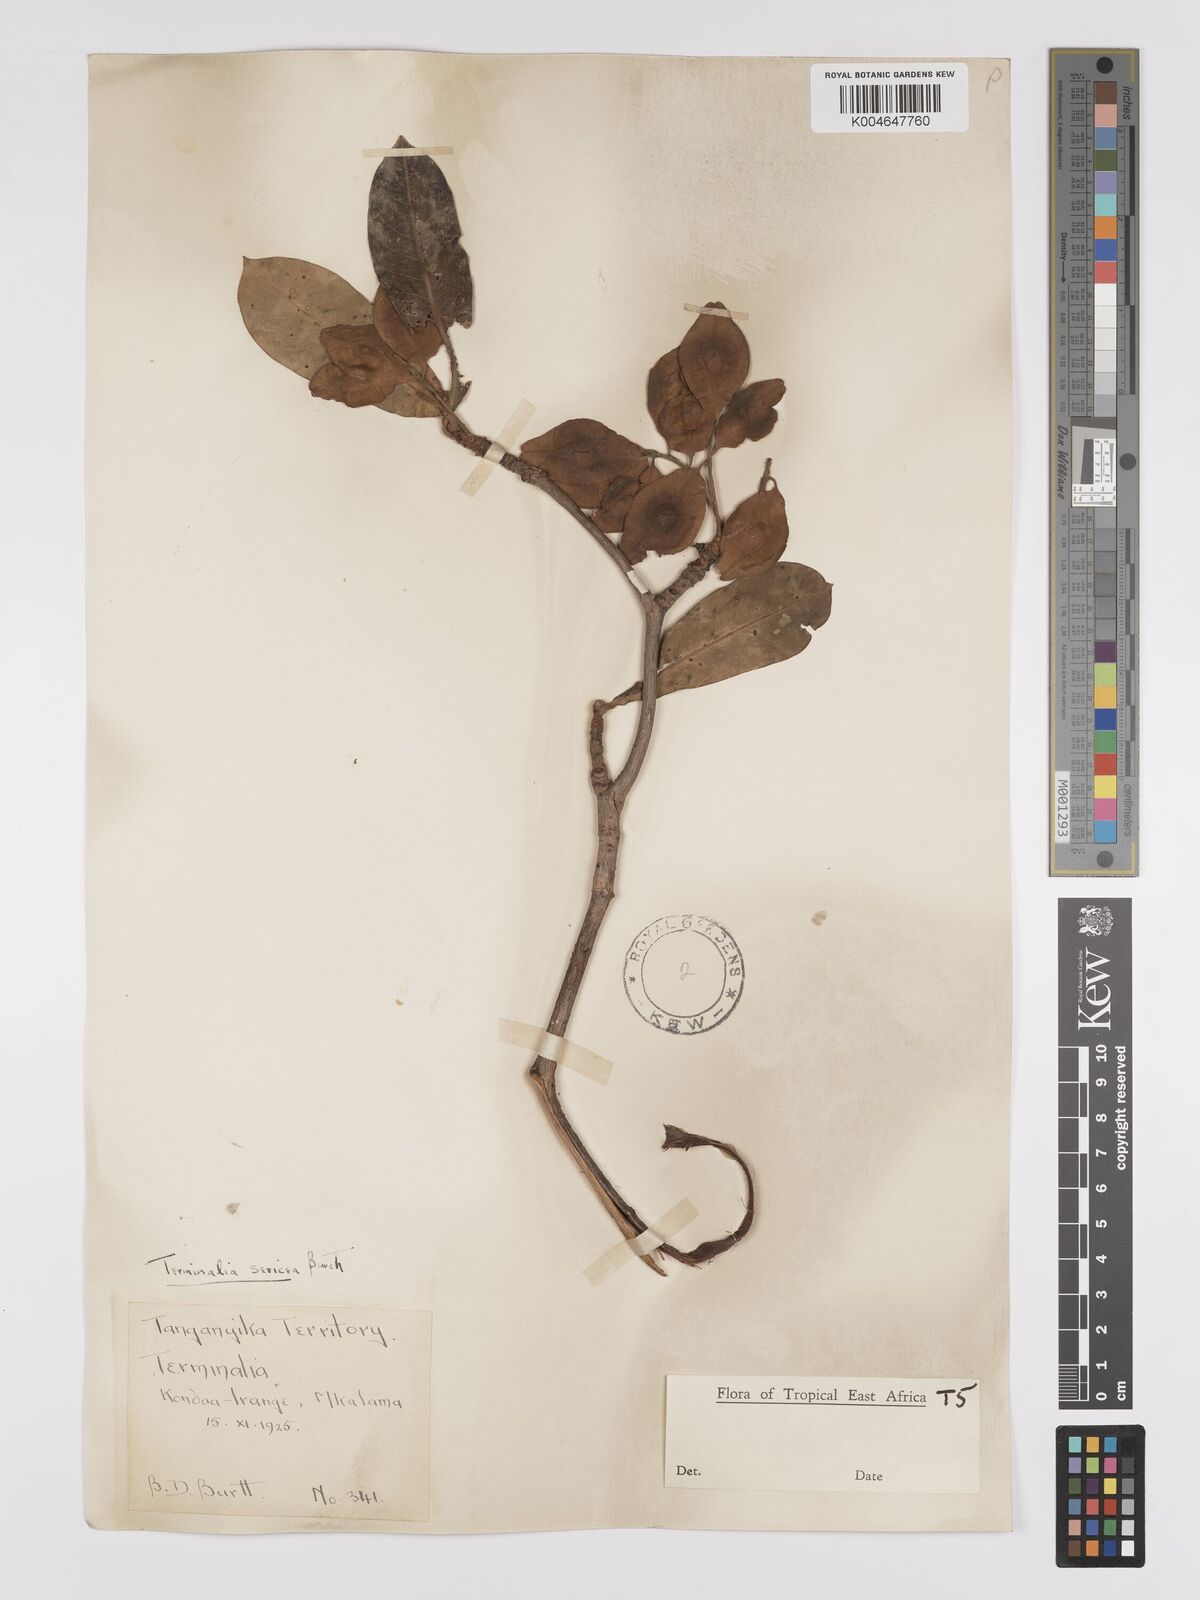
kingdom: Plantae
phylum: Tracheophyta
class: Magnoliopsida
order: Myrtales
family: Combretaceae
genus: Terminalia
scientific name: Terminalia
